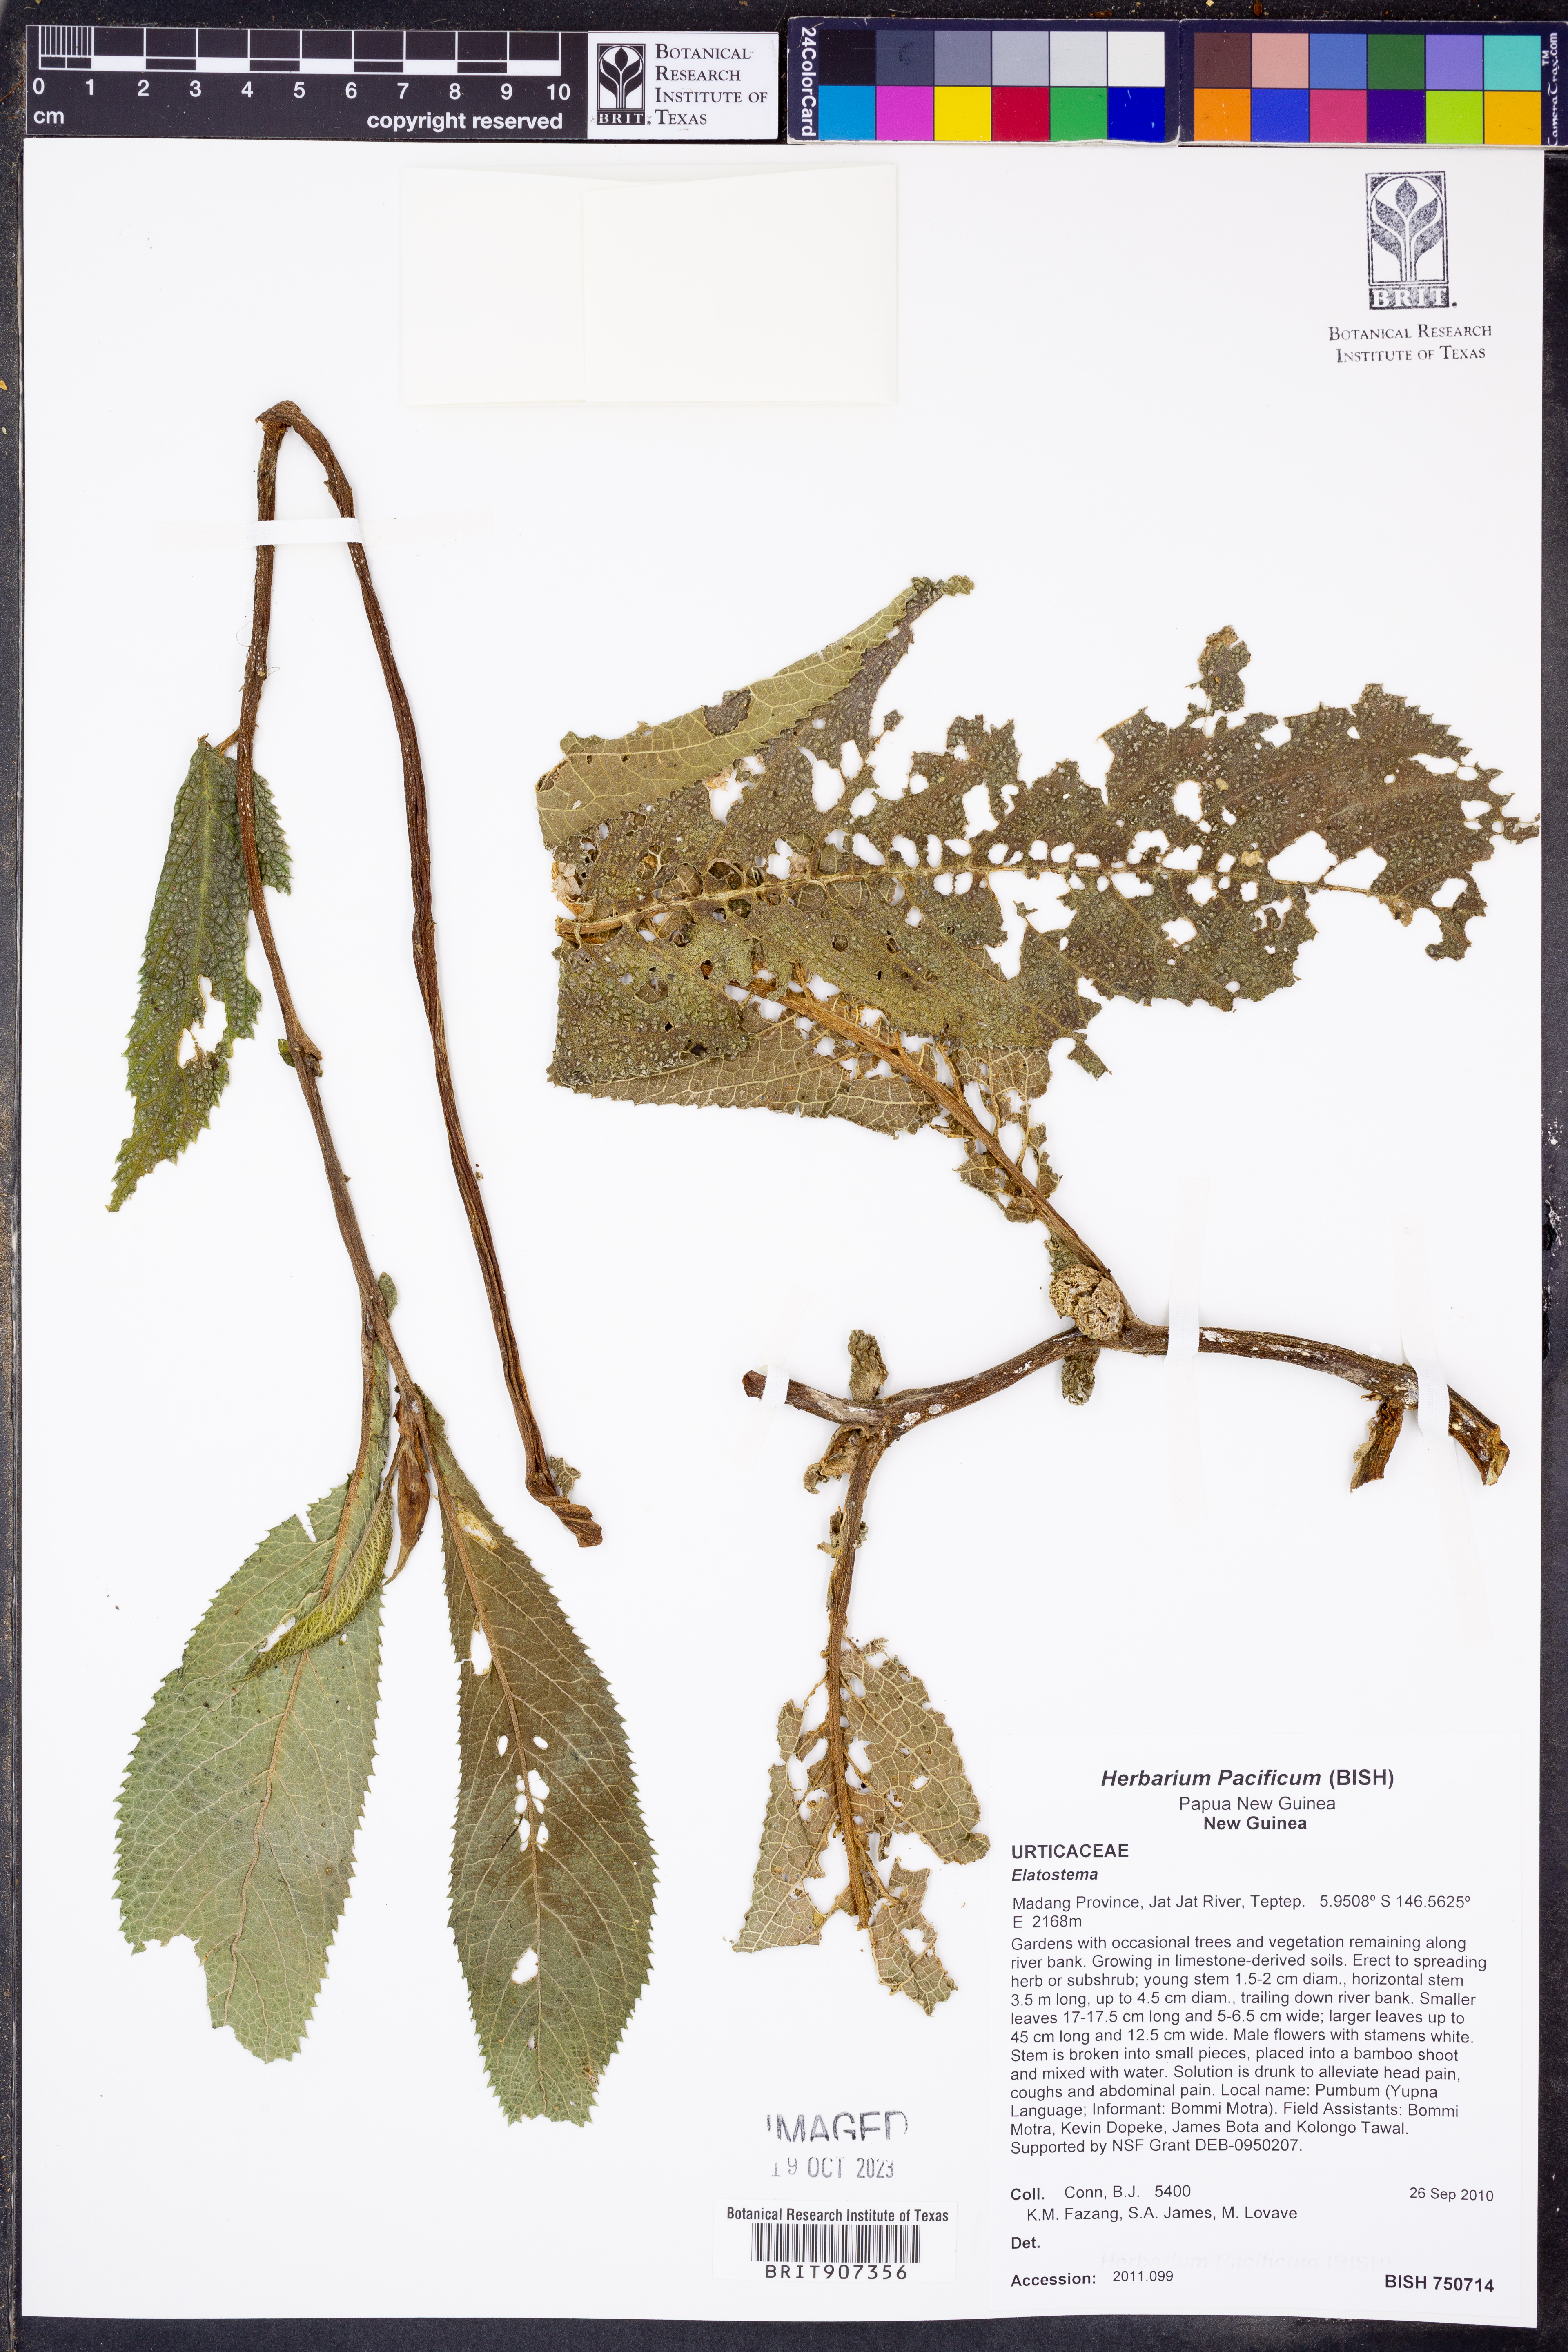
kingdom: Plantae
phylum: Tracheophyta
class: Magnoliopsida
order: Rosales
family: Urticaceae
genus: Elatostema
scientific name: Elatostema
